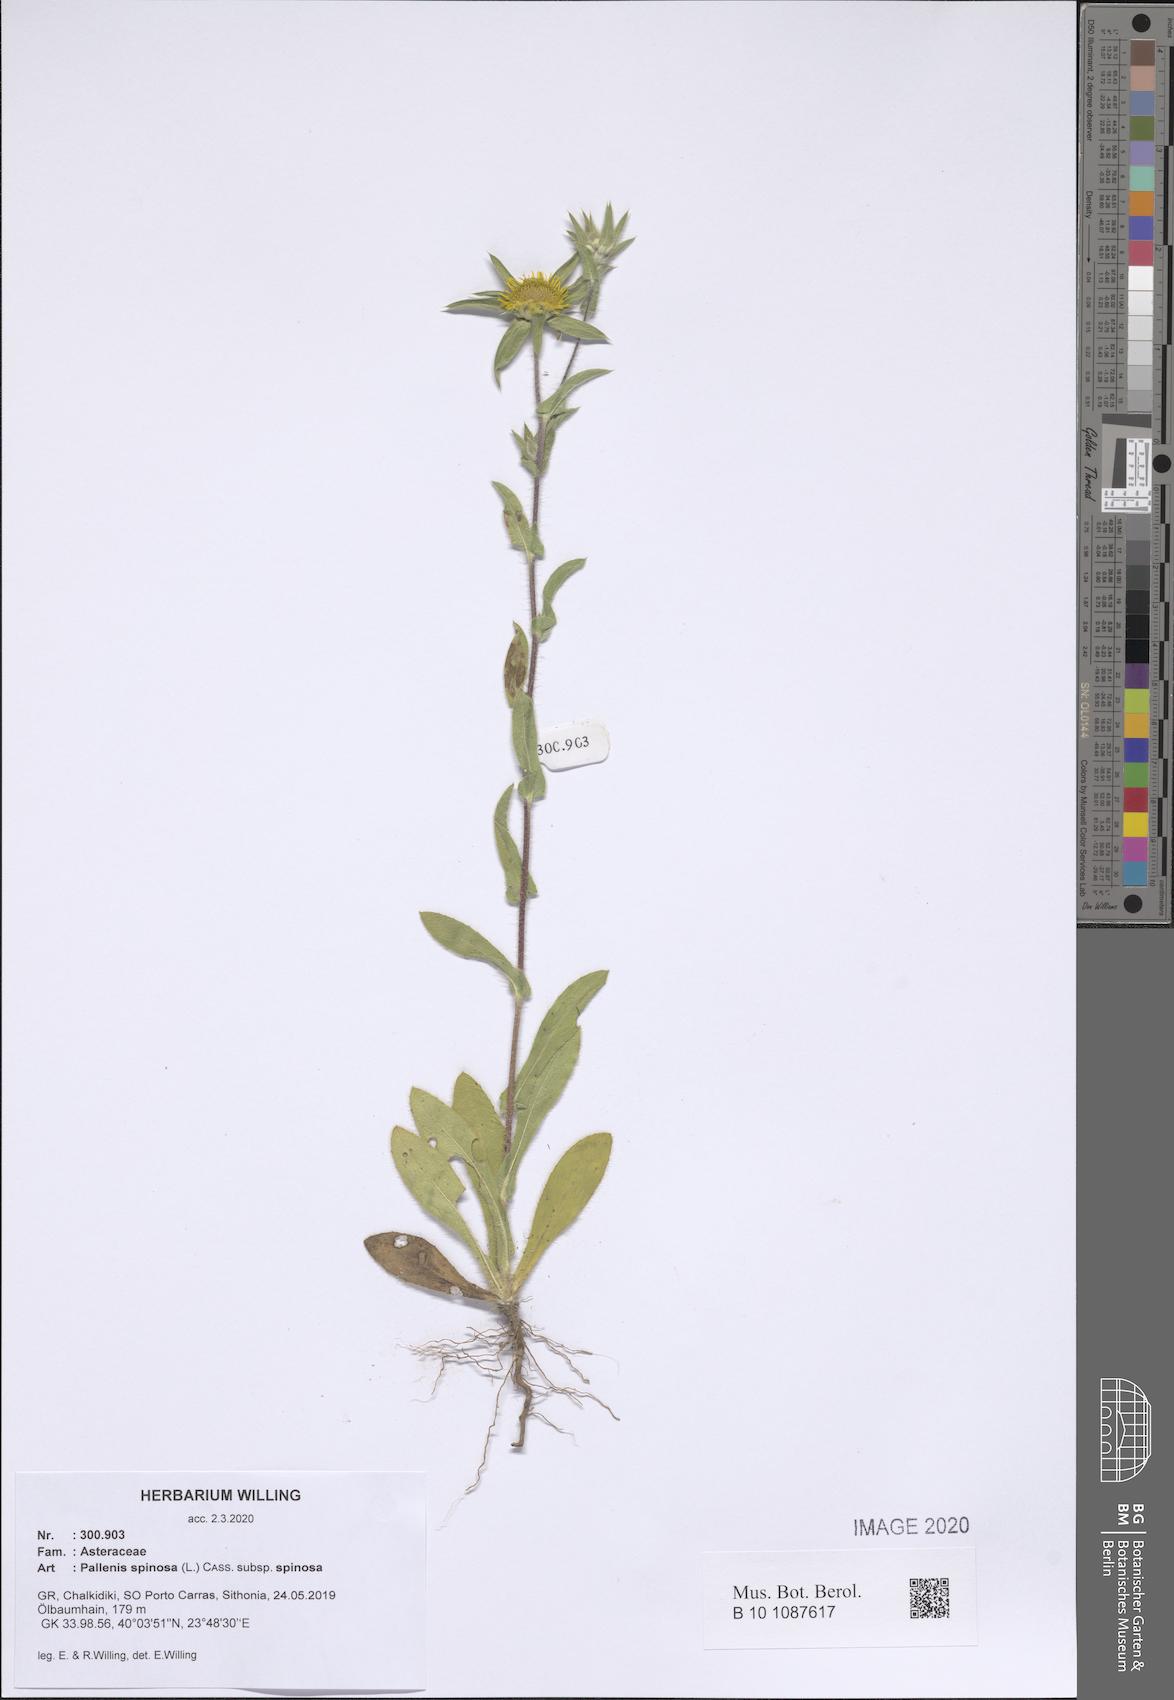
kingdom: Plantae
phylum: Tracheophyta
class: Magnoliopsida
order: Asterales
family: Asteraceae
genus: Pallenis
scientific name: Pallenis spinosa
